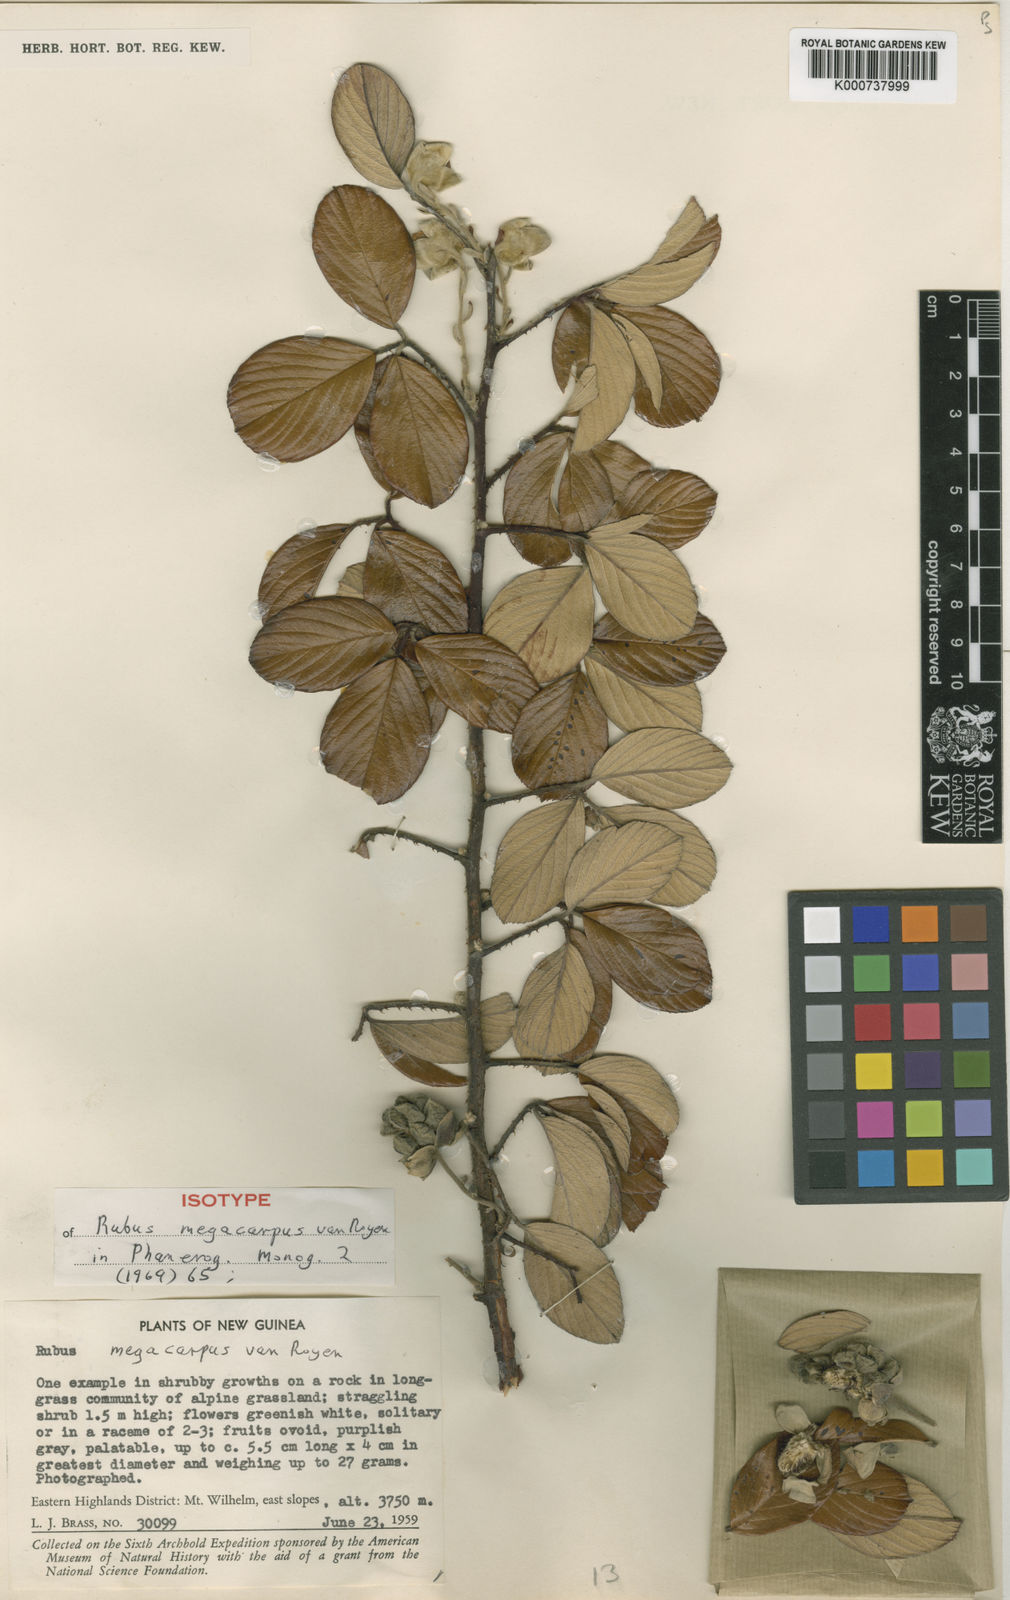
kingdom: Plantae
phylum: Tracheophyta
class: Magnoliopsida
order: Rosales
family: Rosaceae
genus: Rubus
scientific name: Rubus megacarpus
